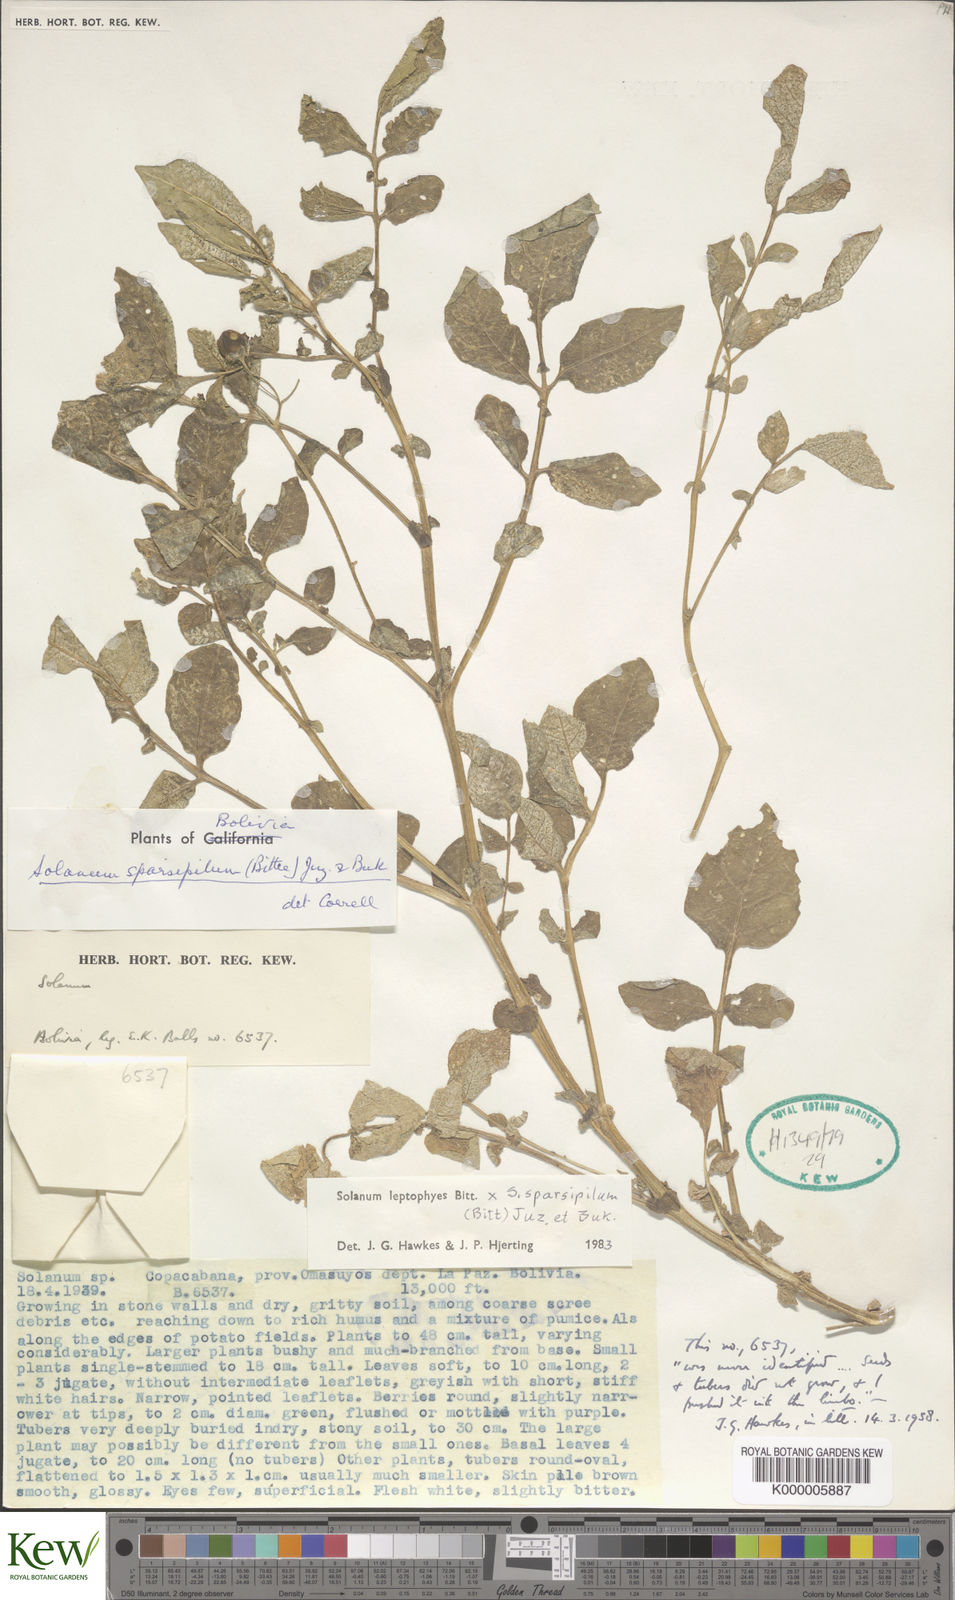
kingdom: Plantae
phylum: Tracheophyta
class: Magnoliopsida
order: Solanales
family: Solanaceae
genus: Solanum
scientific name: Solanum brevicaule
